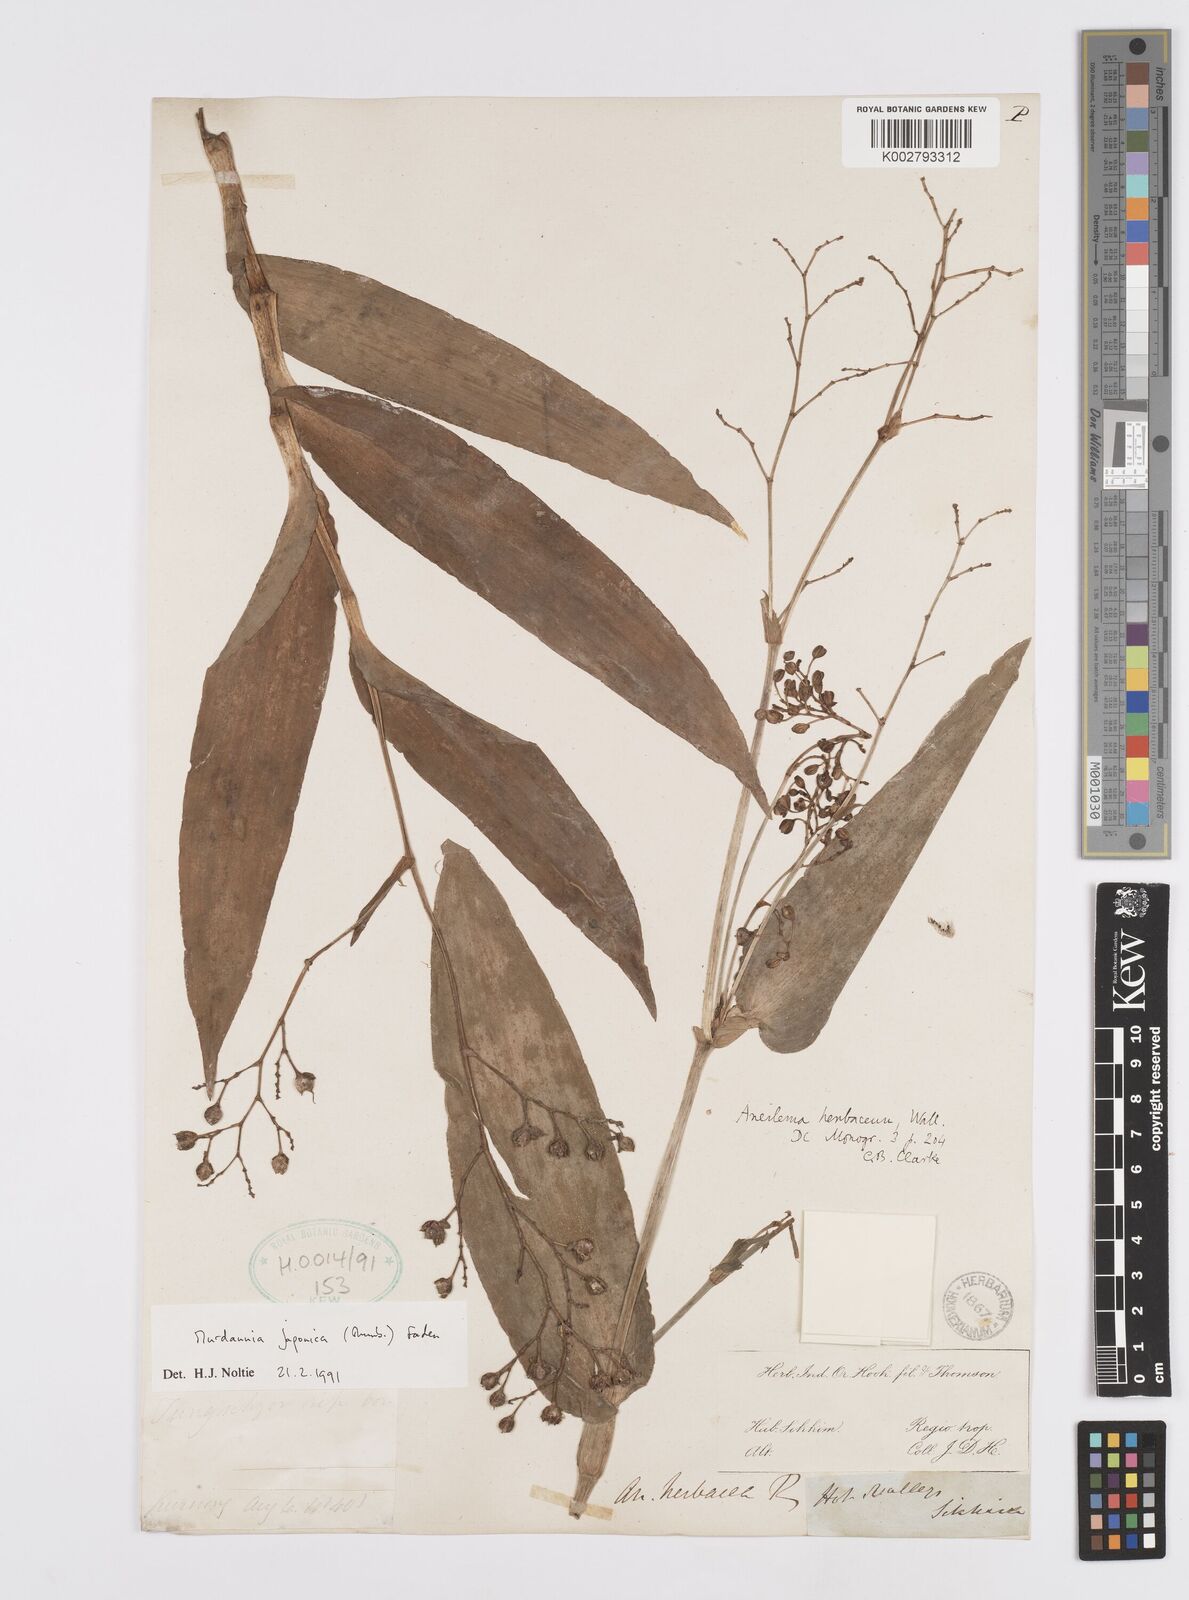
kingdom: Plantae
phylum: Tracheophyta
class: Liliopsida
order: Commelinales
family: Commelinaceae
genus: Murdannia
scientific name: Murdannia japonica
